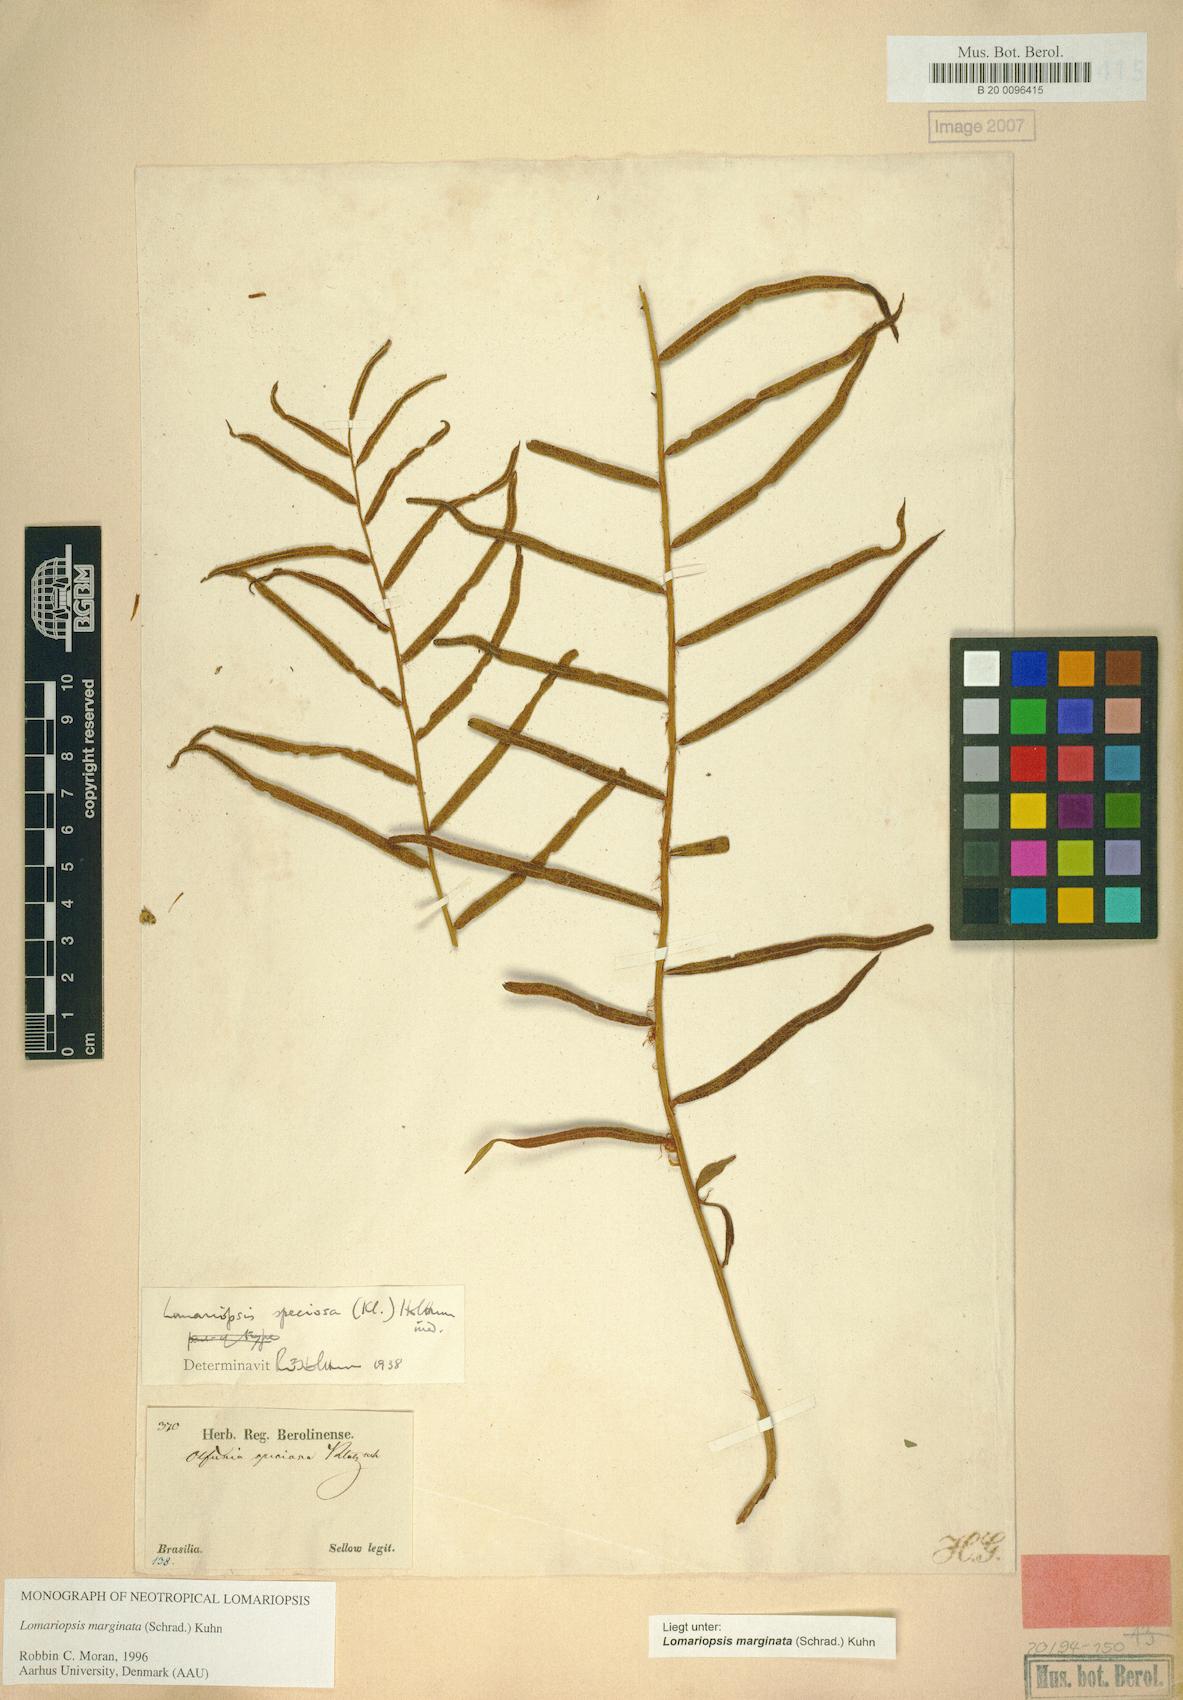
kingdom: Plantae
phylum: Tracheophyta
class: Polypodiopsida
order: Polypodiales
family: Lomariopsidaceae
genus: Lomariopsis
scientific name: Lomariopsis marginata
